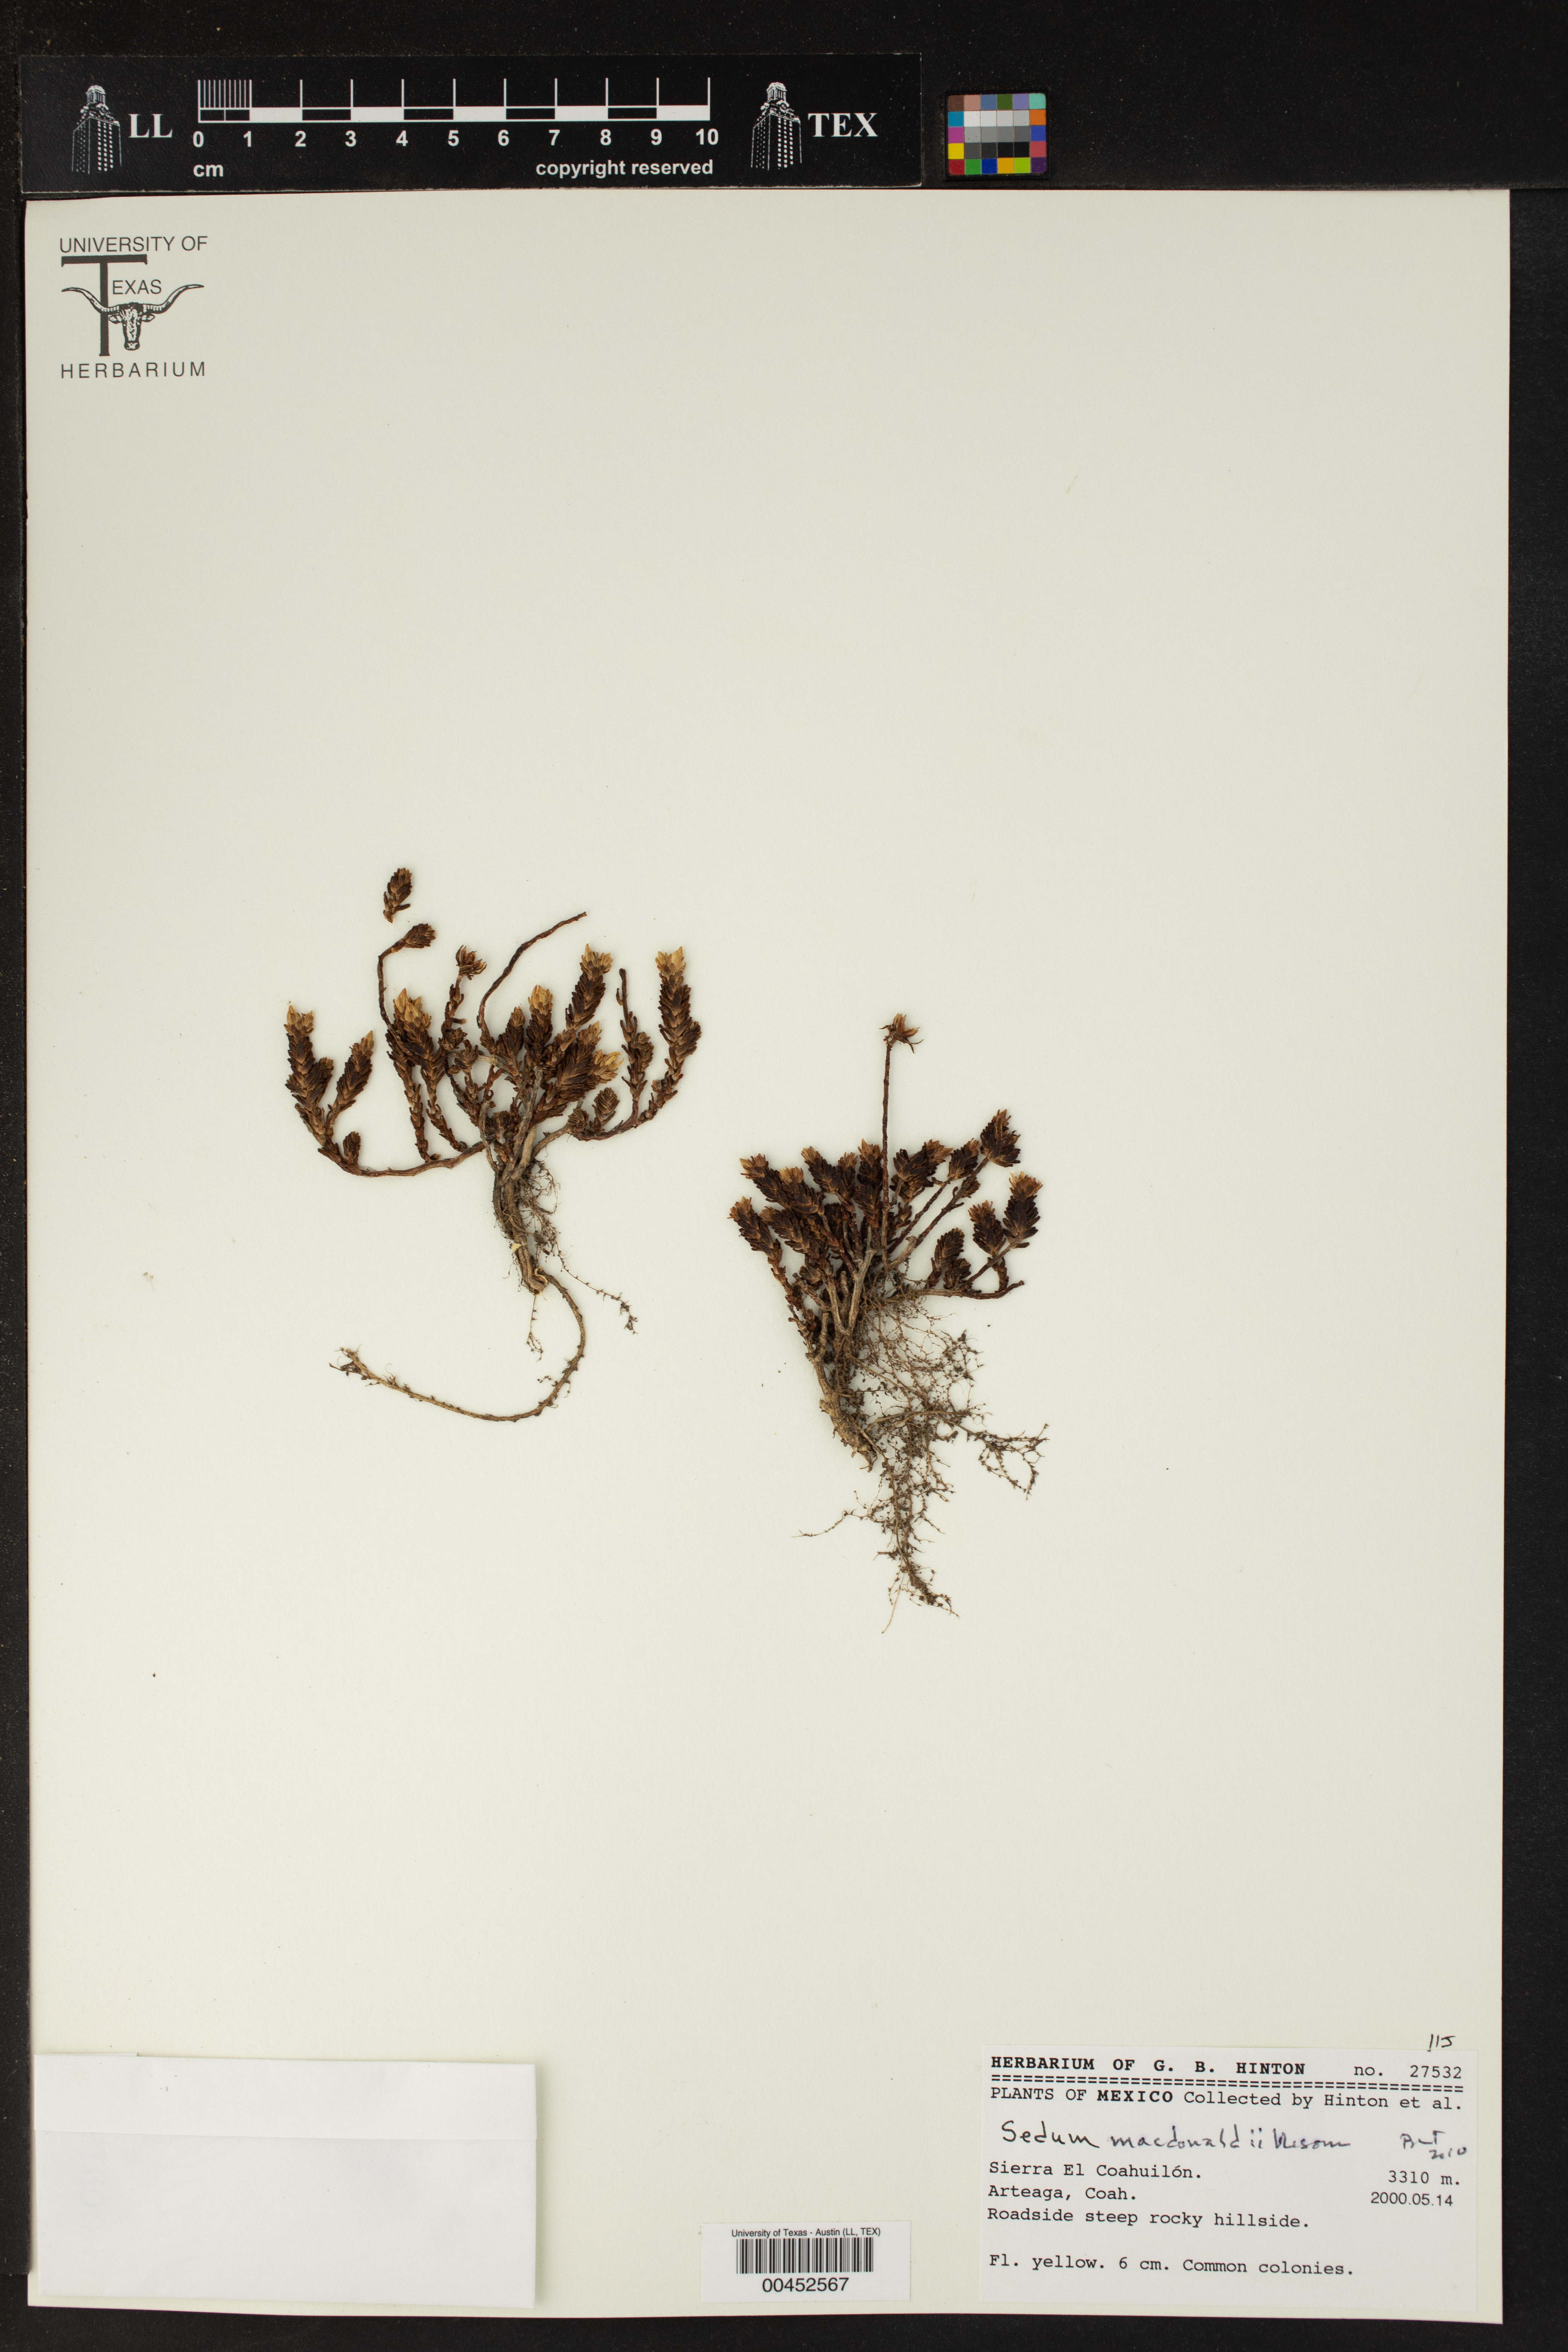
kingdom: Plantae
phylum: Tracheophyta
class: Magnoliopsida
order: Saxifragales
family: Crassulaceae
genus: Sedum
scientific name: Sedum macdonaldii
